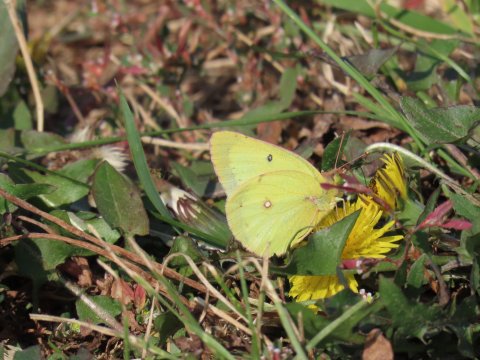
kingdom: Animalia
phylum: Arthropoda
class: Insecta
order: Lepidoptera
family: Pieridae
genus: Colias
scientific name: Colias philodice
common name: Clouded Sulphur
